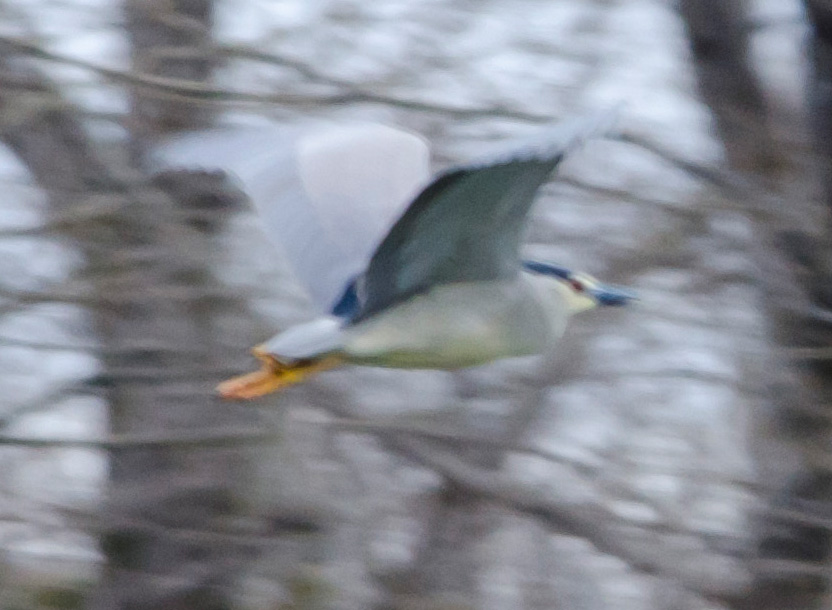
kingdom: Animalia
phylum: Chordata
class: Aves
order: Pelecaniformes
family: Ardeidae
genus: Nycticorax
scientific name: Nycticorax nycticorax
